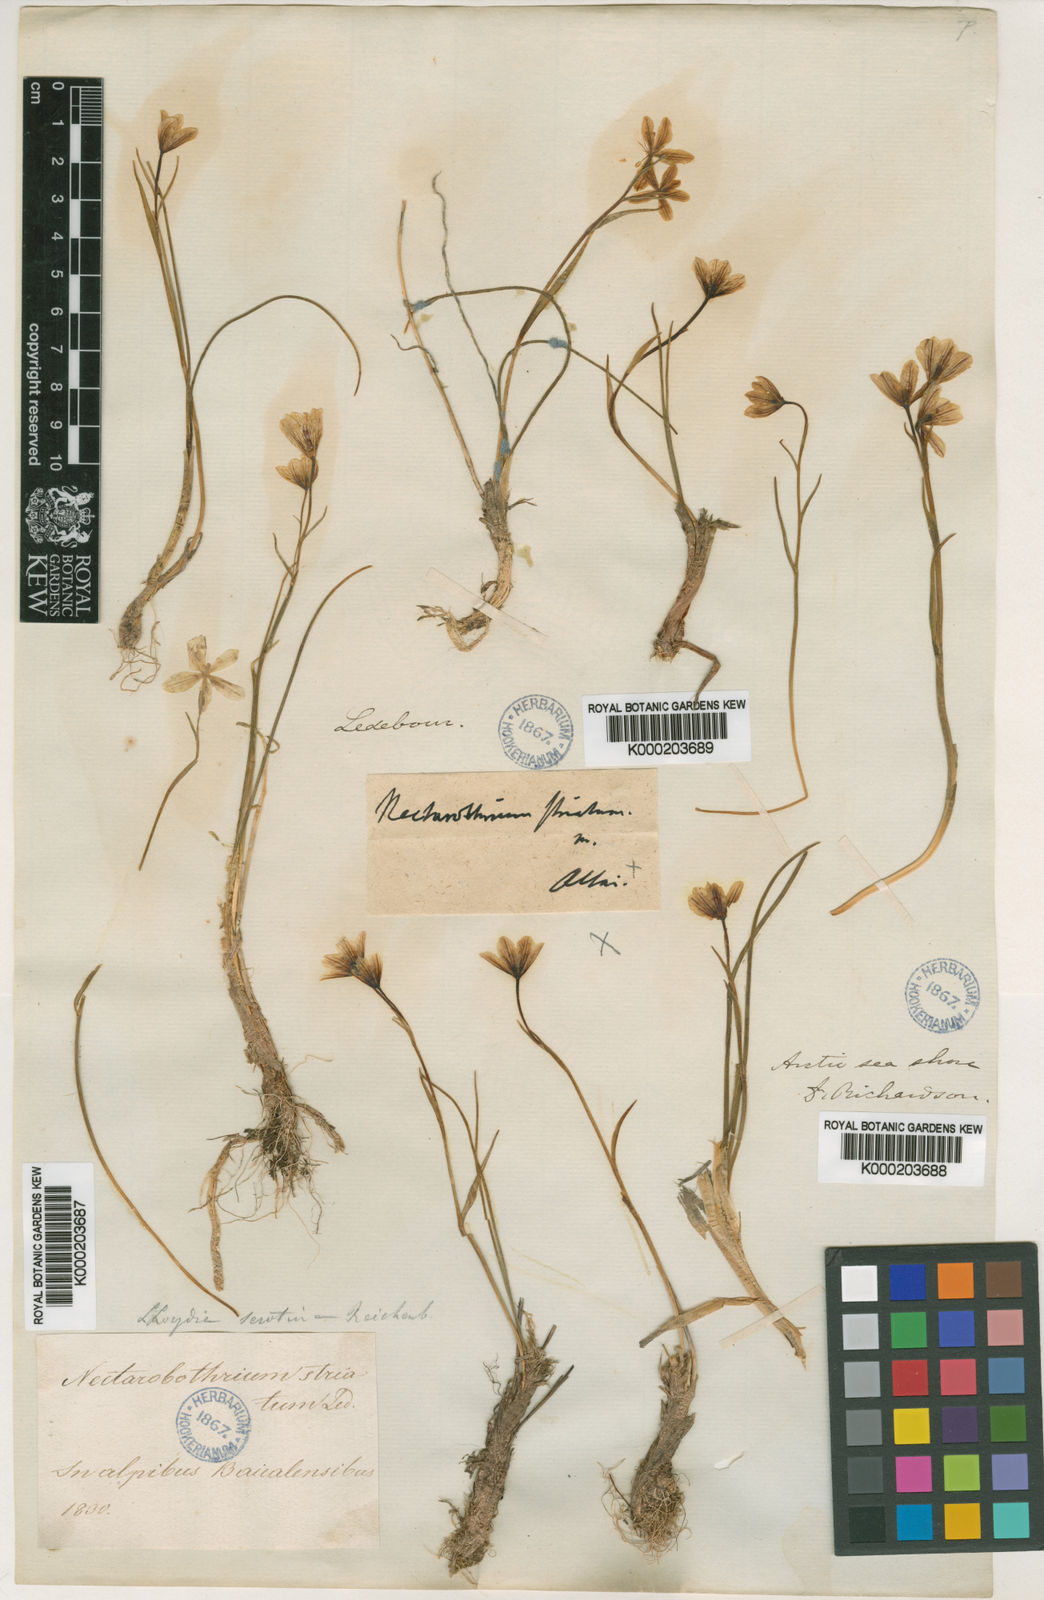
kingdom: Plantae
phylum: Tracheophyta
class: Liliopsida
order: Liliales
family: Liliaceae
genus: Gagea
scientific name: Gagea serotina
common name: Snowdon lily
